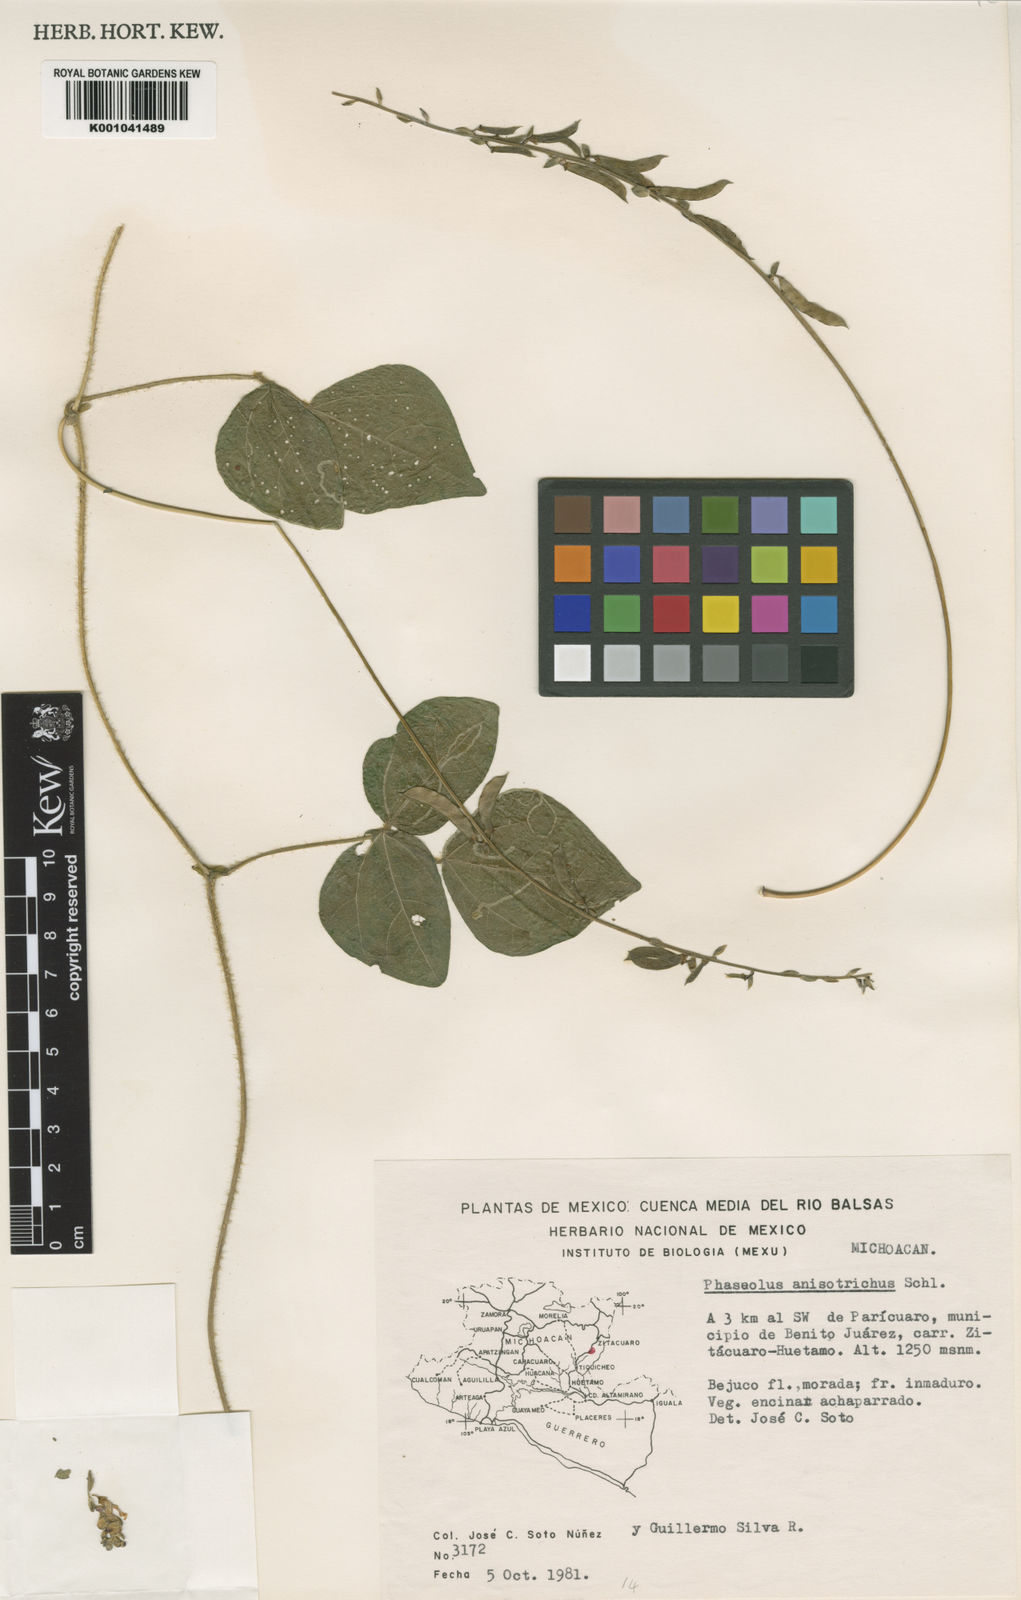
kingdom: Plantae
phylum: Tracheophyta
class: Magnoliopsida
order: Fabales
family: Fabaceae
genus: Phaseolus
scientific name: Phaseolus
